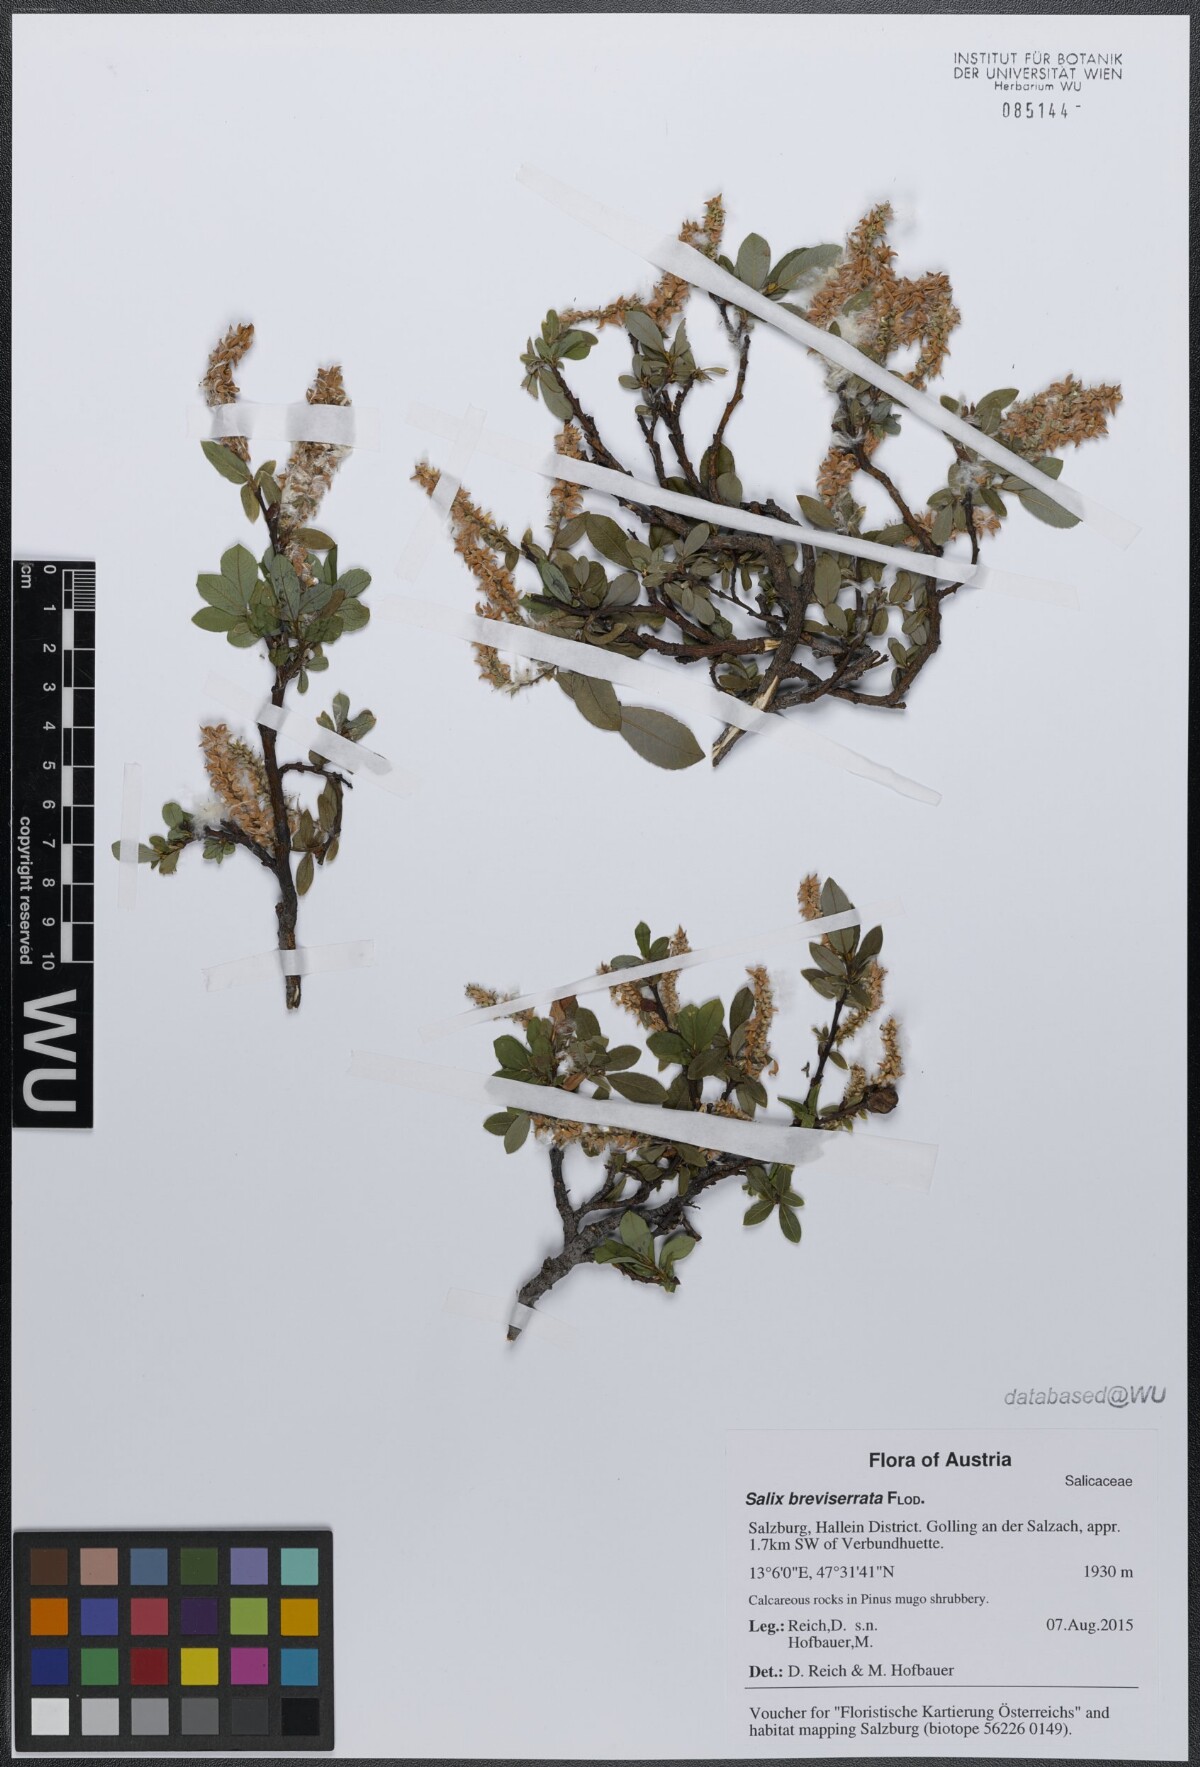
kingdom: Plantae
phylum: Tracheophyta
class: Magnoliopsida
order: Malpighiales
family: Salicaceae
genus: Salix
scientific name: Salix waldsteiniana
